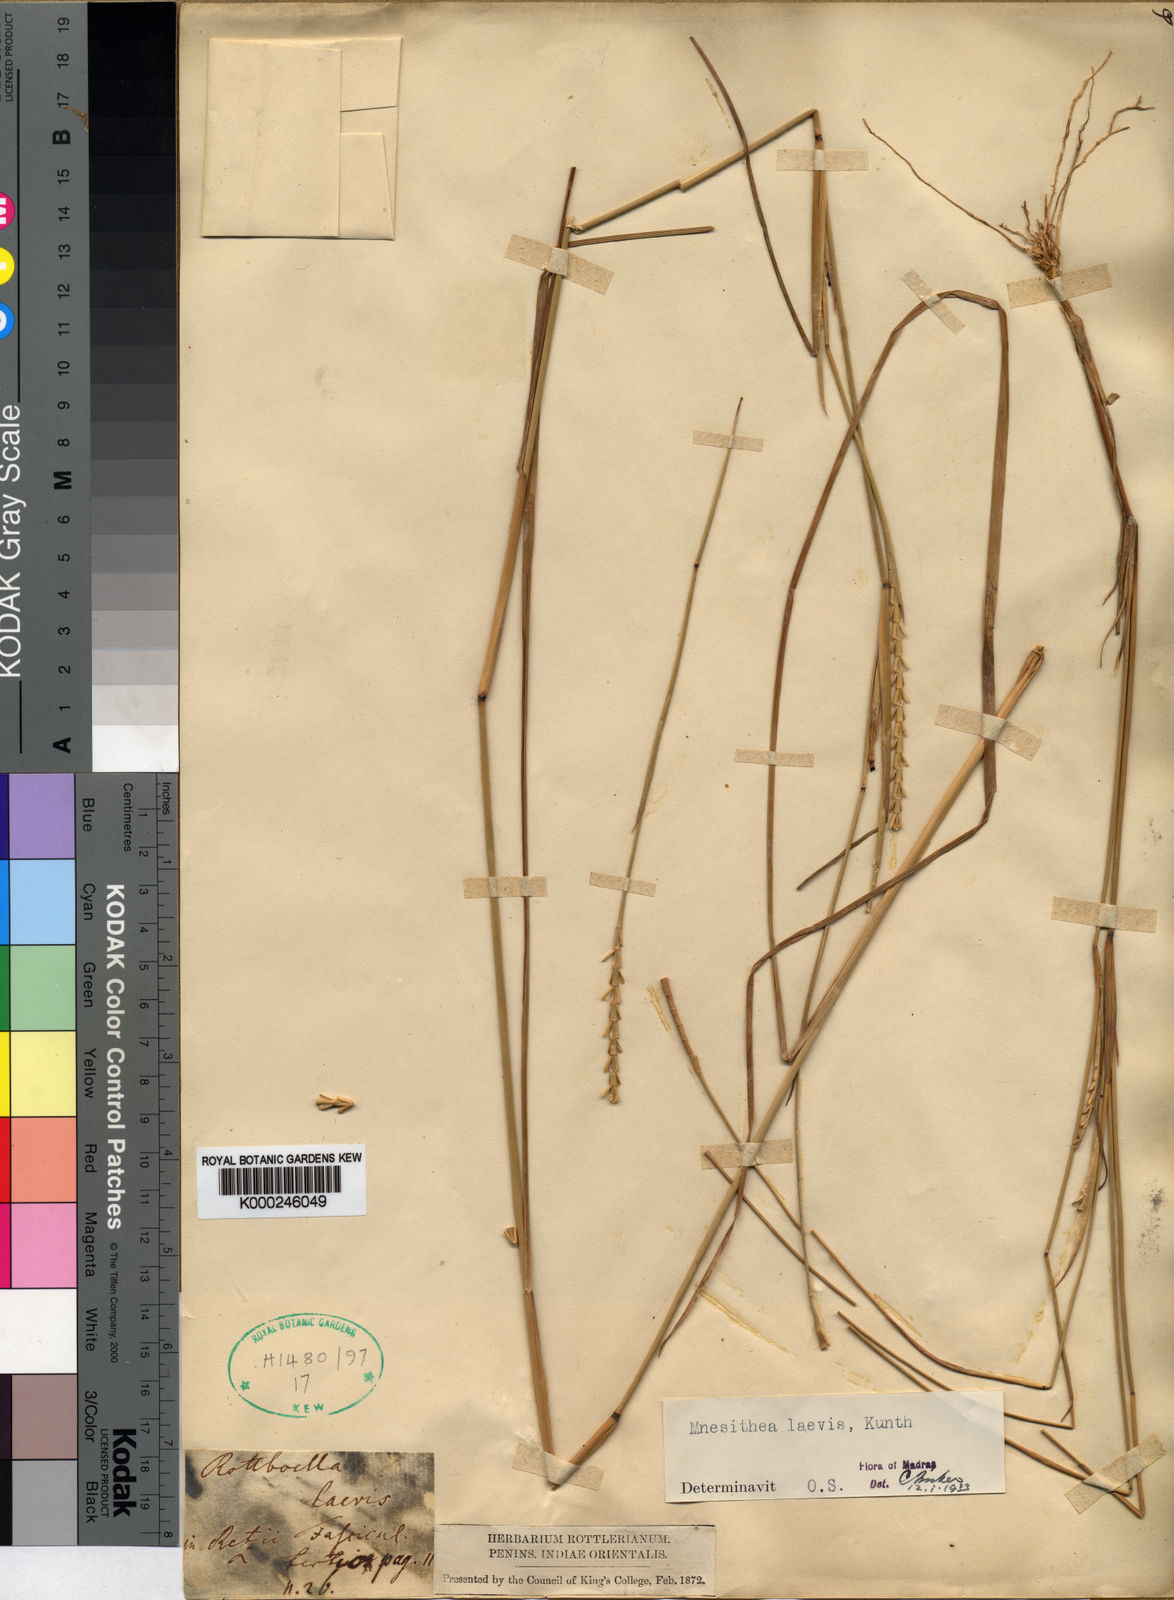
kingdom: Plantae
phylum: Tracheophyta
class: Liliopsida
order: Poales
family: Poaceae
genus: Mnesithea
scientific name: Mnesithea laevis
